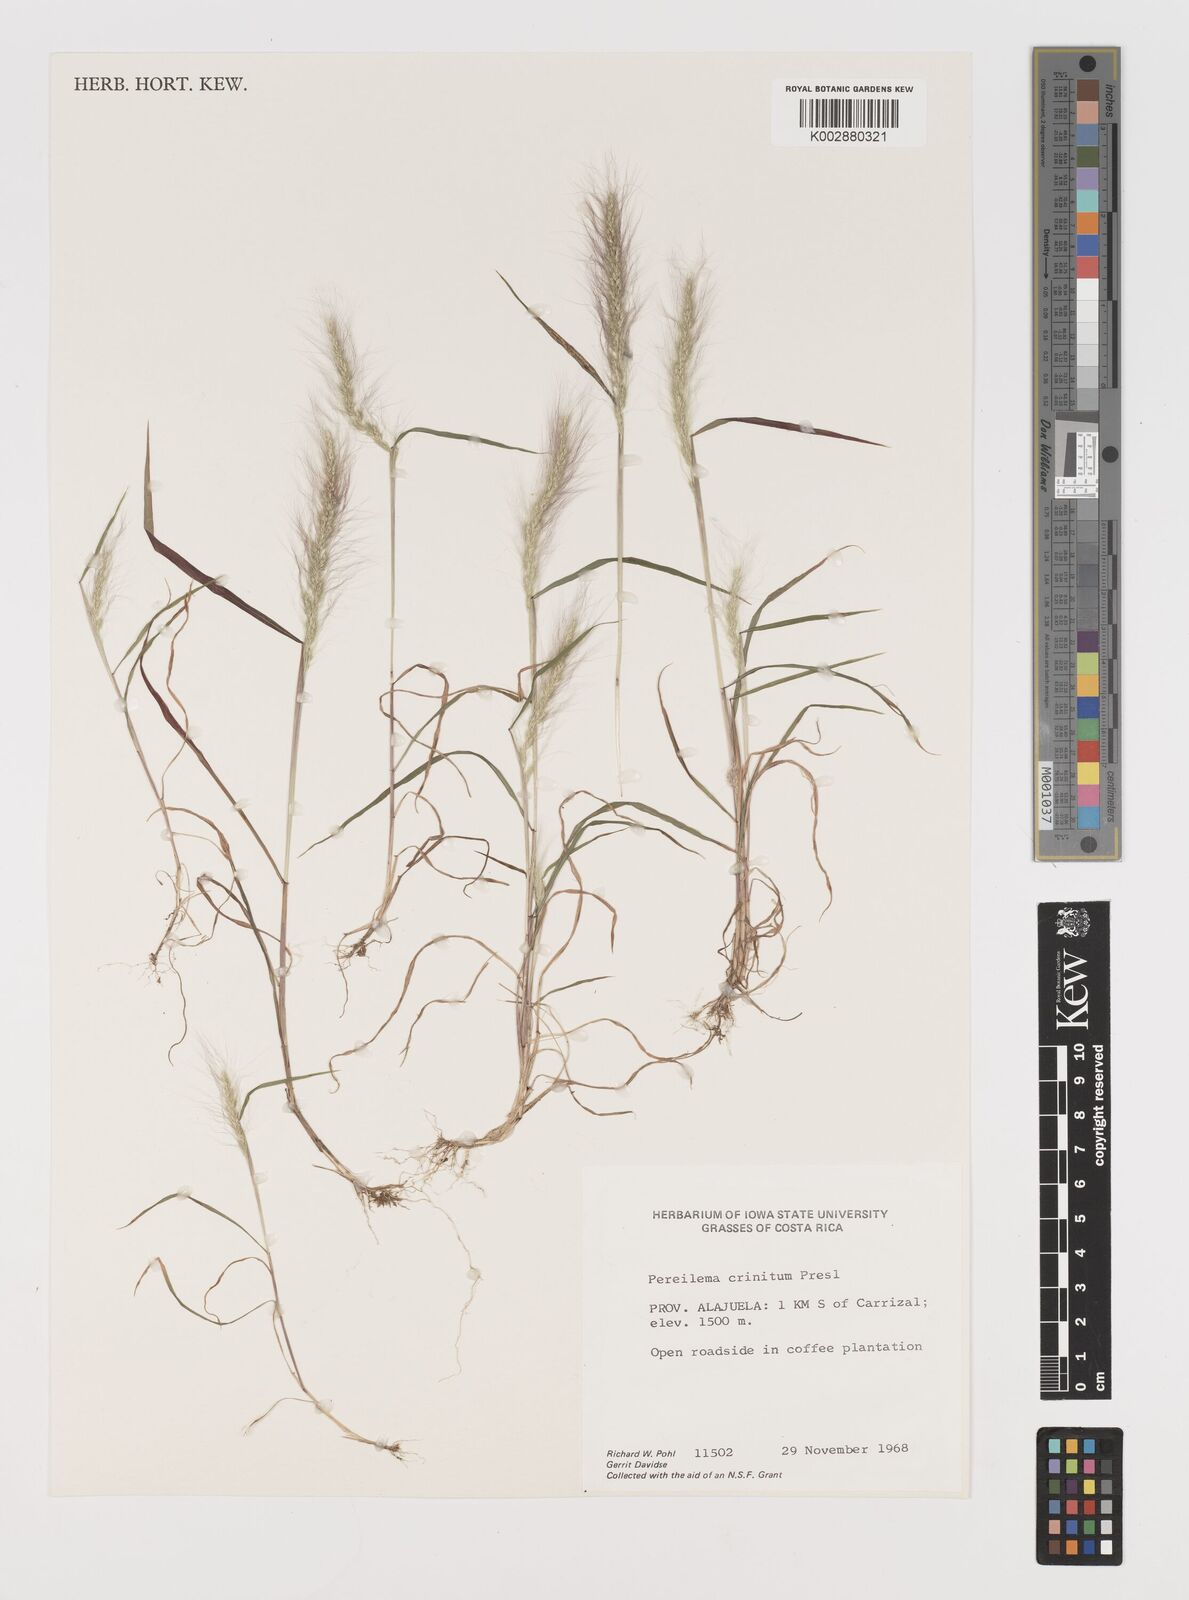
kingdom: Plantae
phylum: Tracheophyta
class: Liliopsida
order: Poales
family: Poaceae
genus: Muhlenbergia
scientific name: Muhlenbergia pereilema
